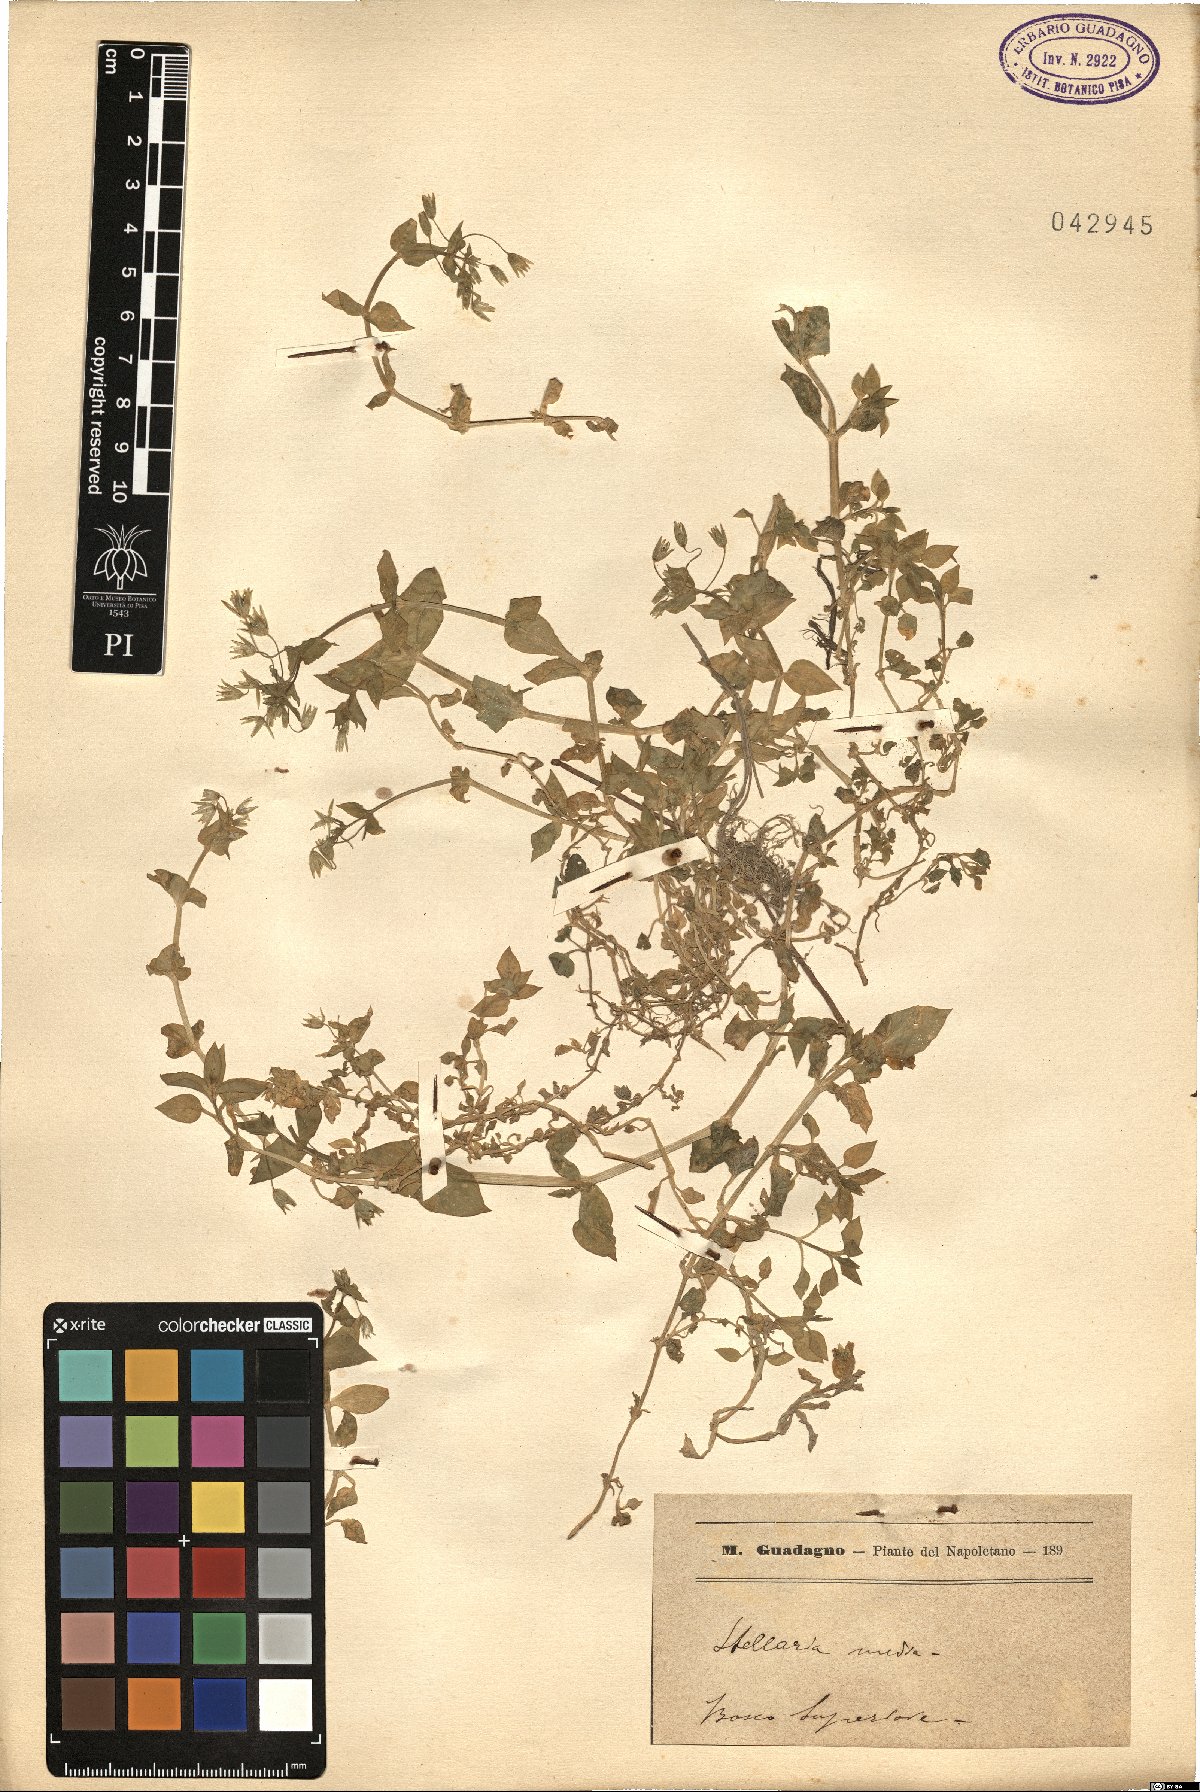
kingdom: Plantae
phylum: Tracheophyta
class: Magnoliopsida
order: Caryophyllales
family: Caryophyllaceae
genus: Stellaria
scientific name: Stellaria media
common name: Common chickweed
